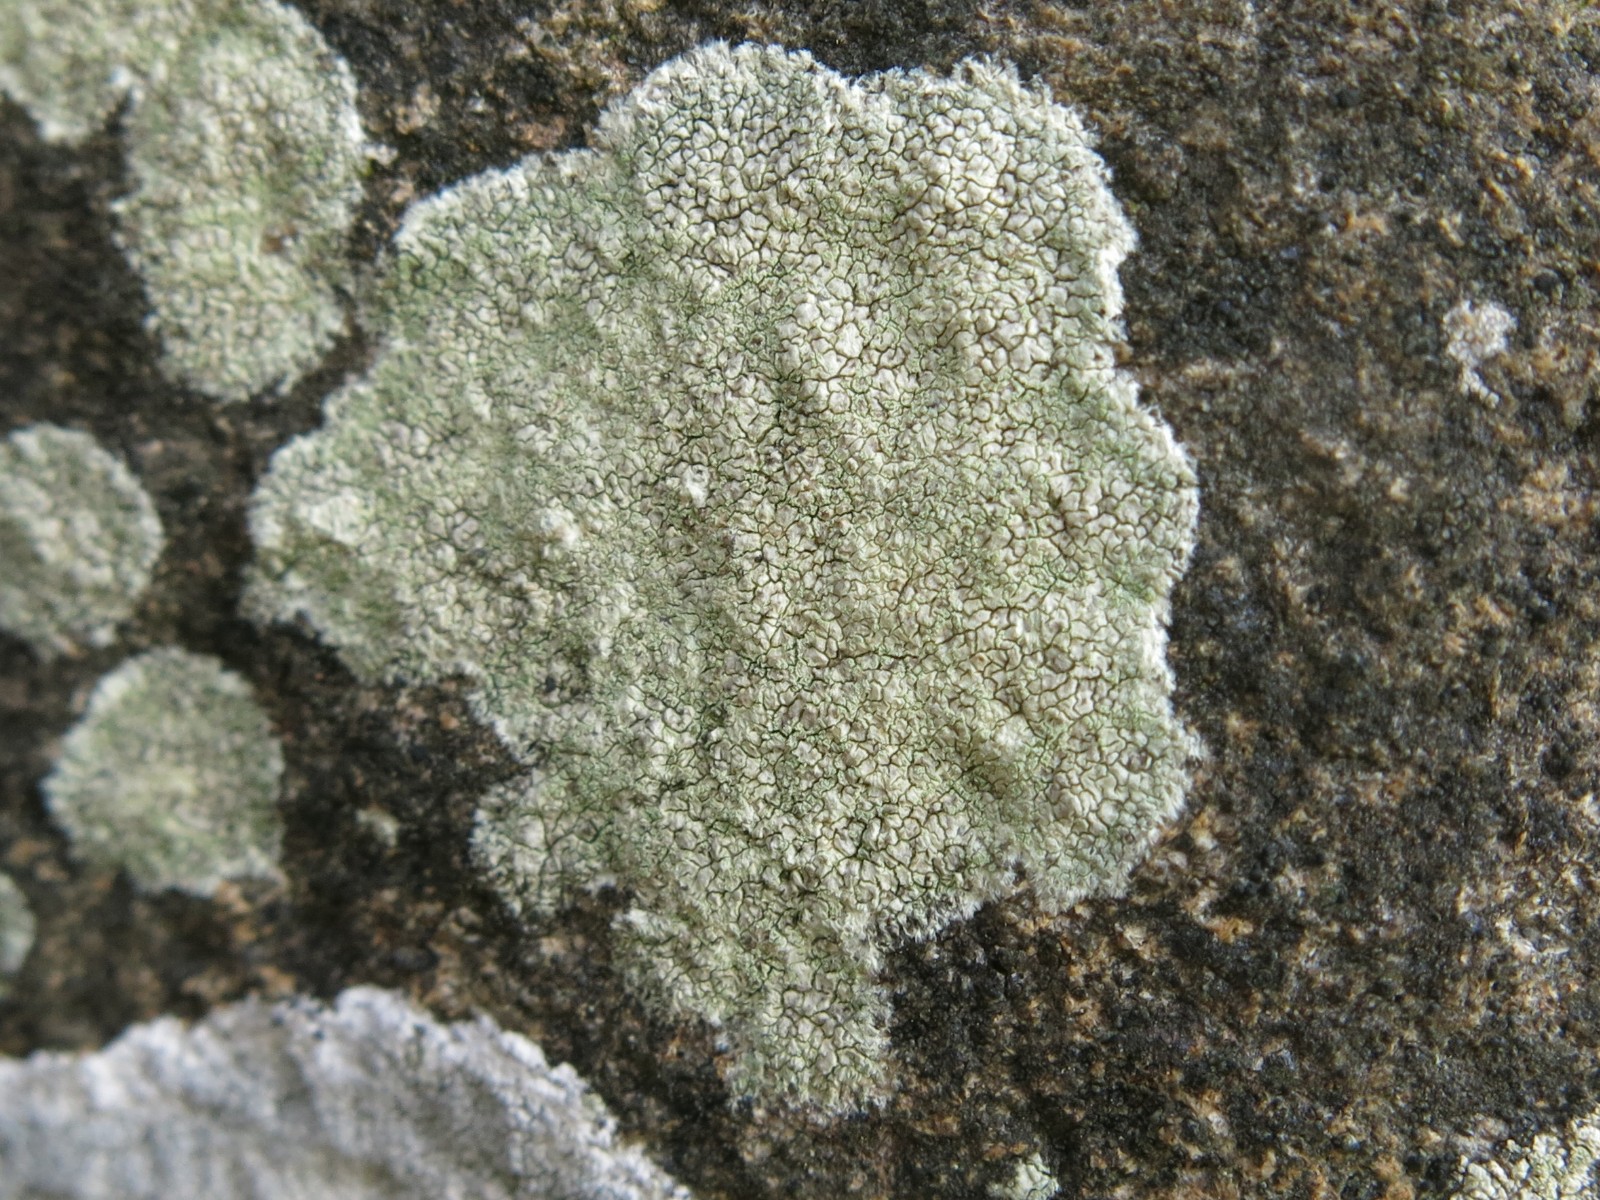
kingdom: Fungi
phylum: Ascomycota
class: Lecanoromycetes
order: Lecanorales
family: Lecanoraceae
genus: Lecanora
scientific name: Lecanora orosthea
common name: grønskurvet kantskivelav
